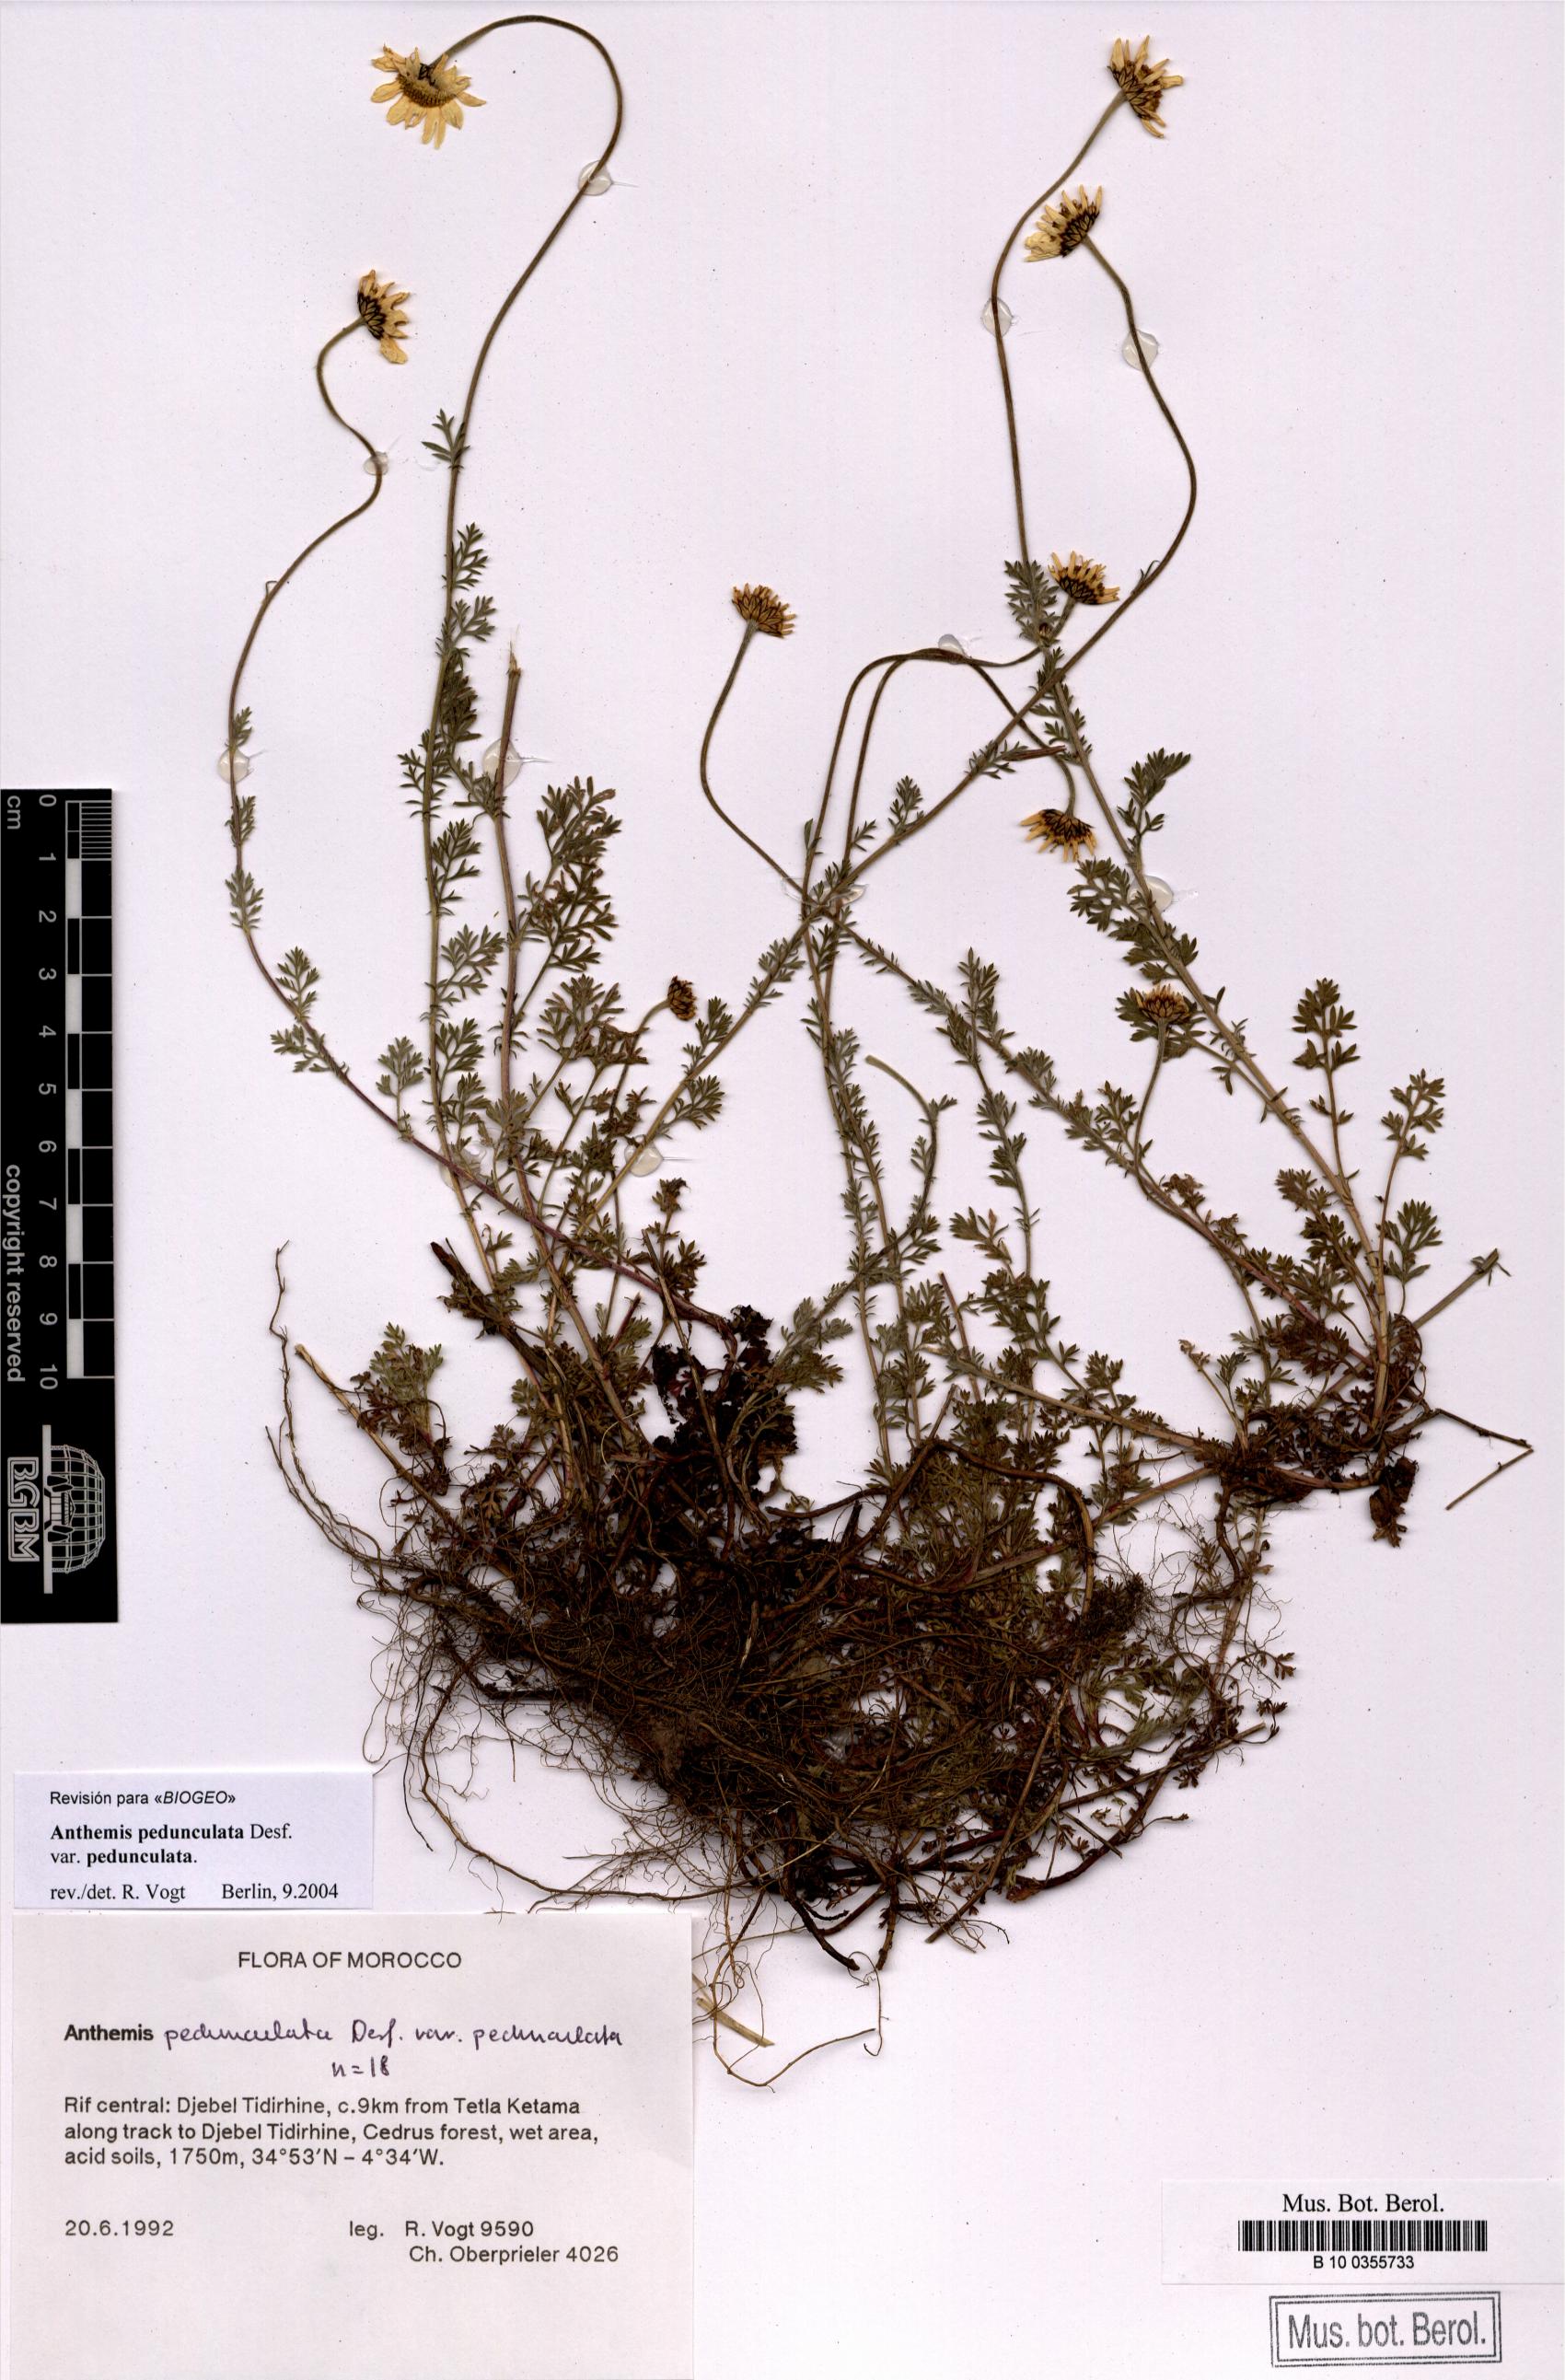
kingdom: Plantae
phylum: Tracheophyta
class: Magnoliopsida
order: Asterales
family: Asteraceae
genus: Anthemis
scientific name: Anthemis pedunculata
